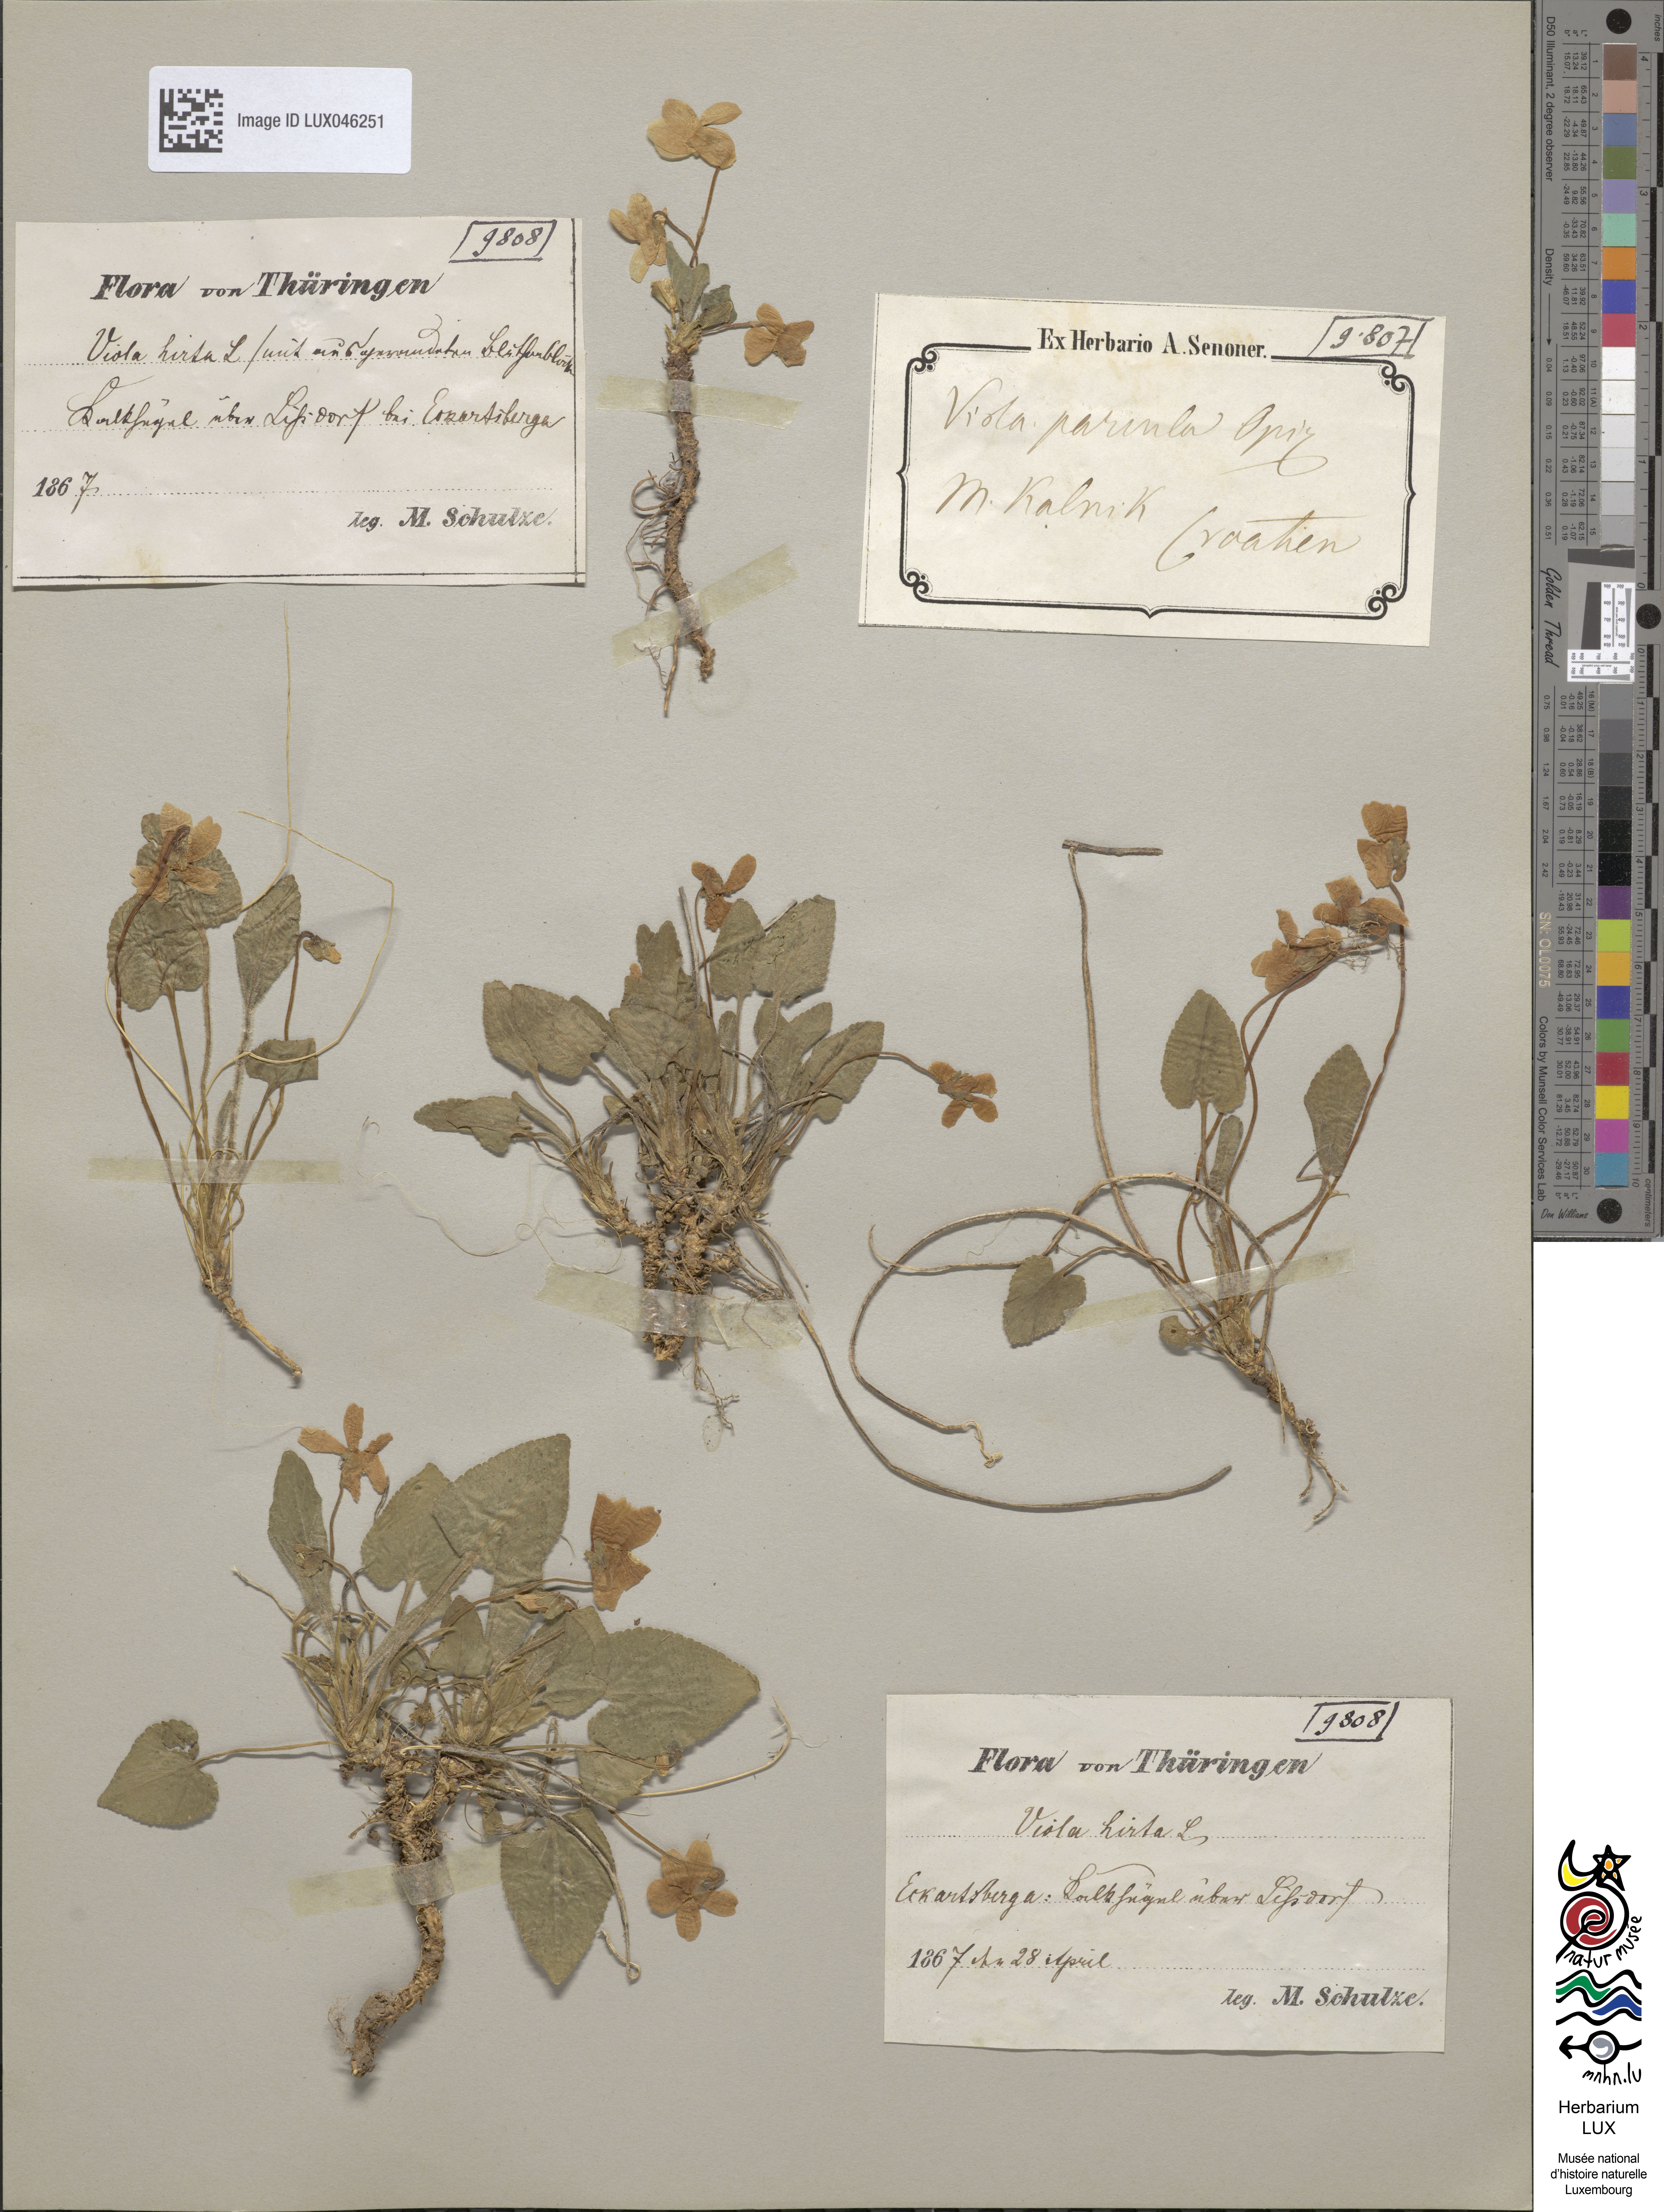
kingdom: Plantae
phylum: Tracheophyta
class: Magnoliopsida
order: Malpighiales
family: Violaceae
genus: Viola
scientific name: Viola hirta
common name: Hairy violet
